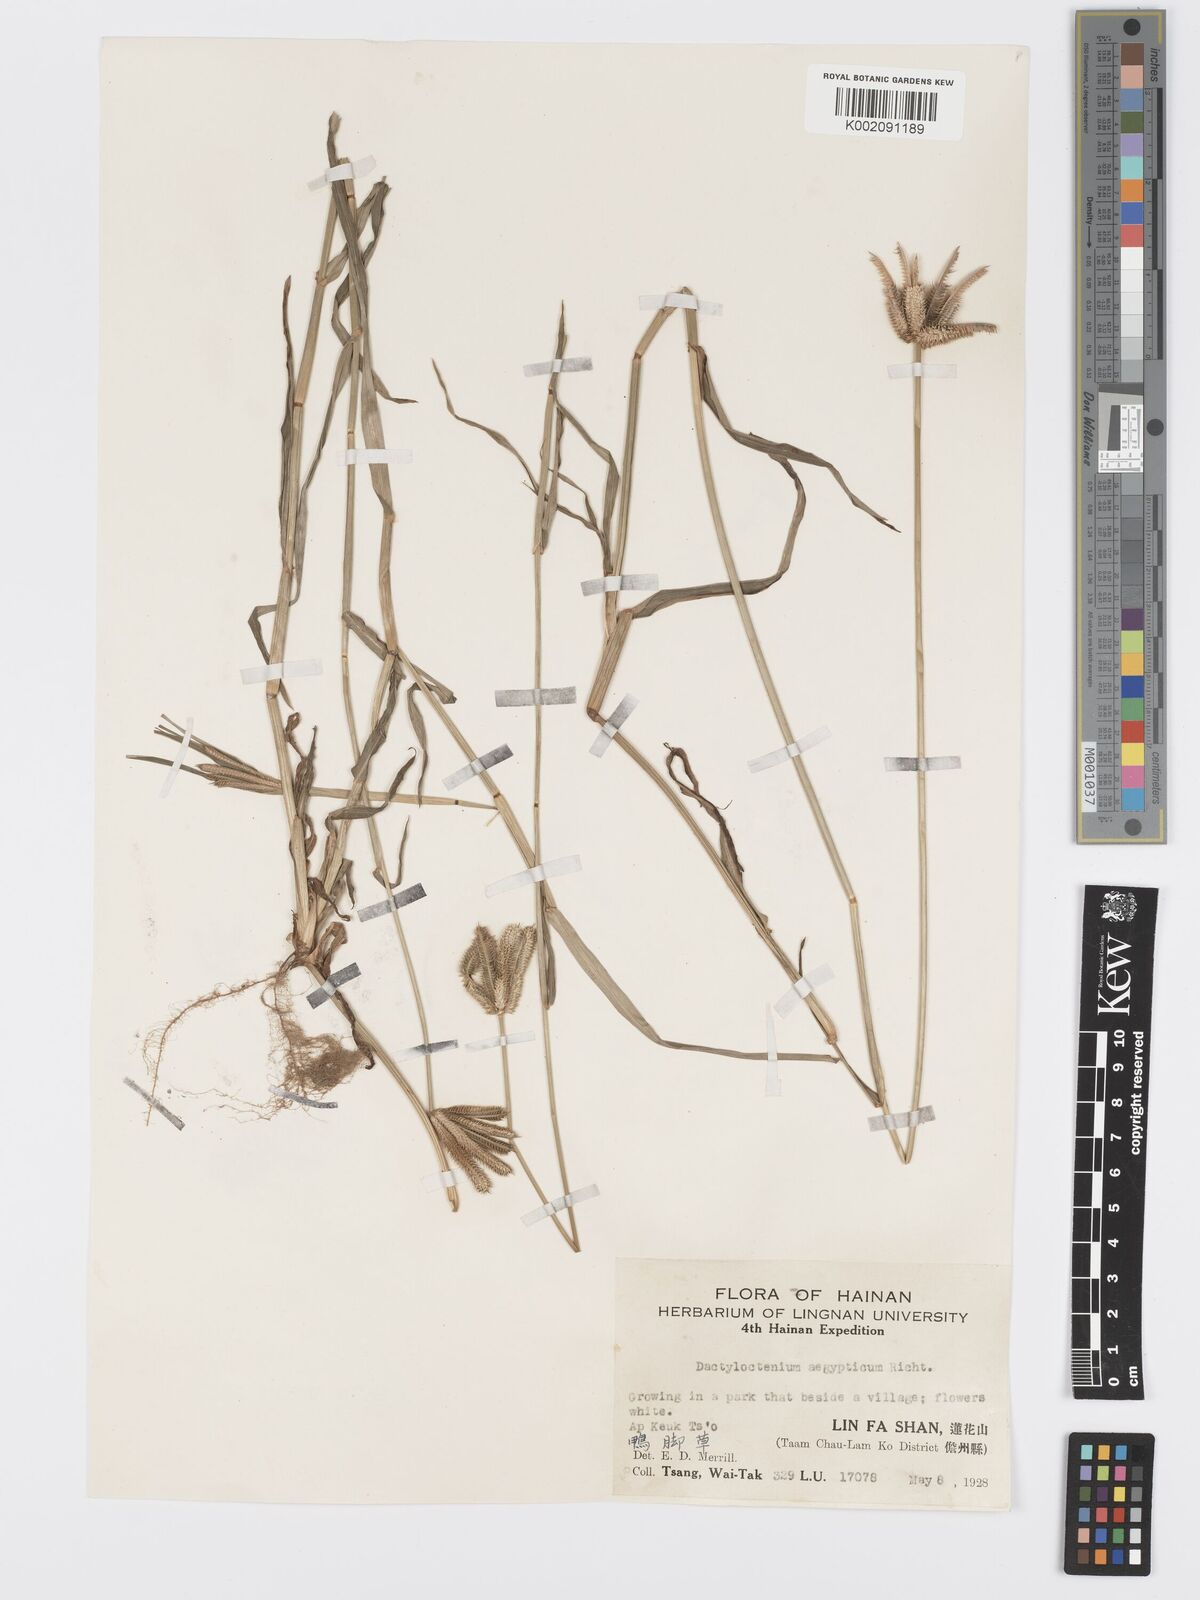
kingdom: Plantae
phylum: Tracheophyta
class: Liliopsida
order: Poales
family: Poaceae
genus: Dactyloctenium
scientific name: Dactyloctenium aegyptium
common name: Egyptian grass
